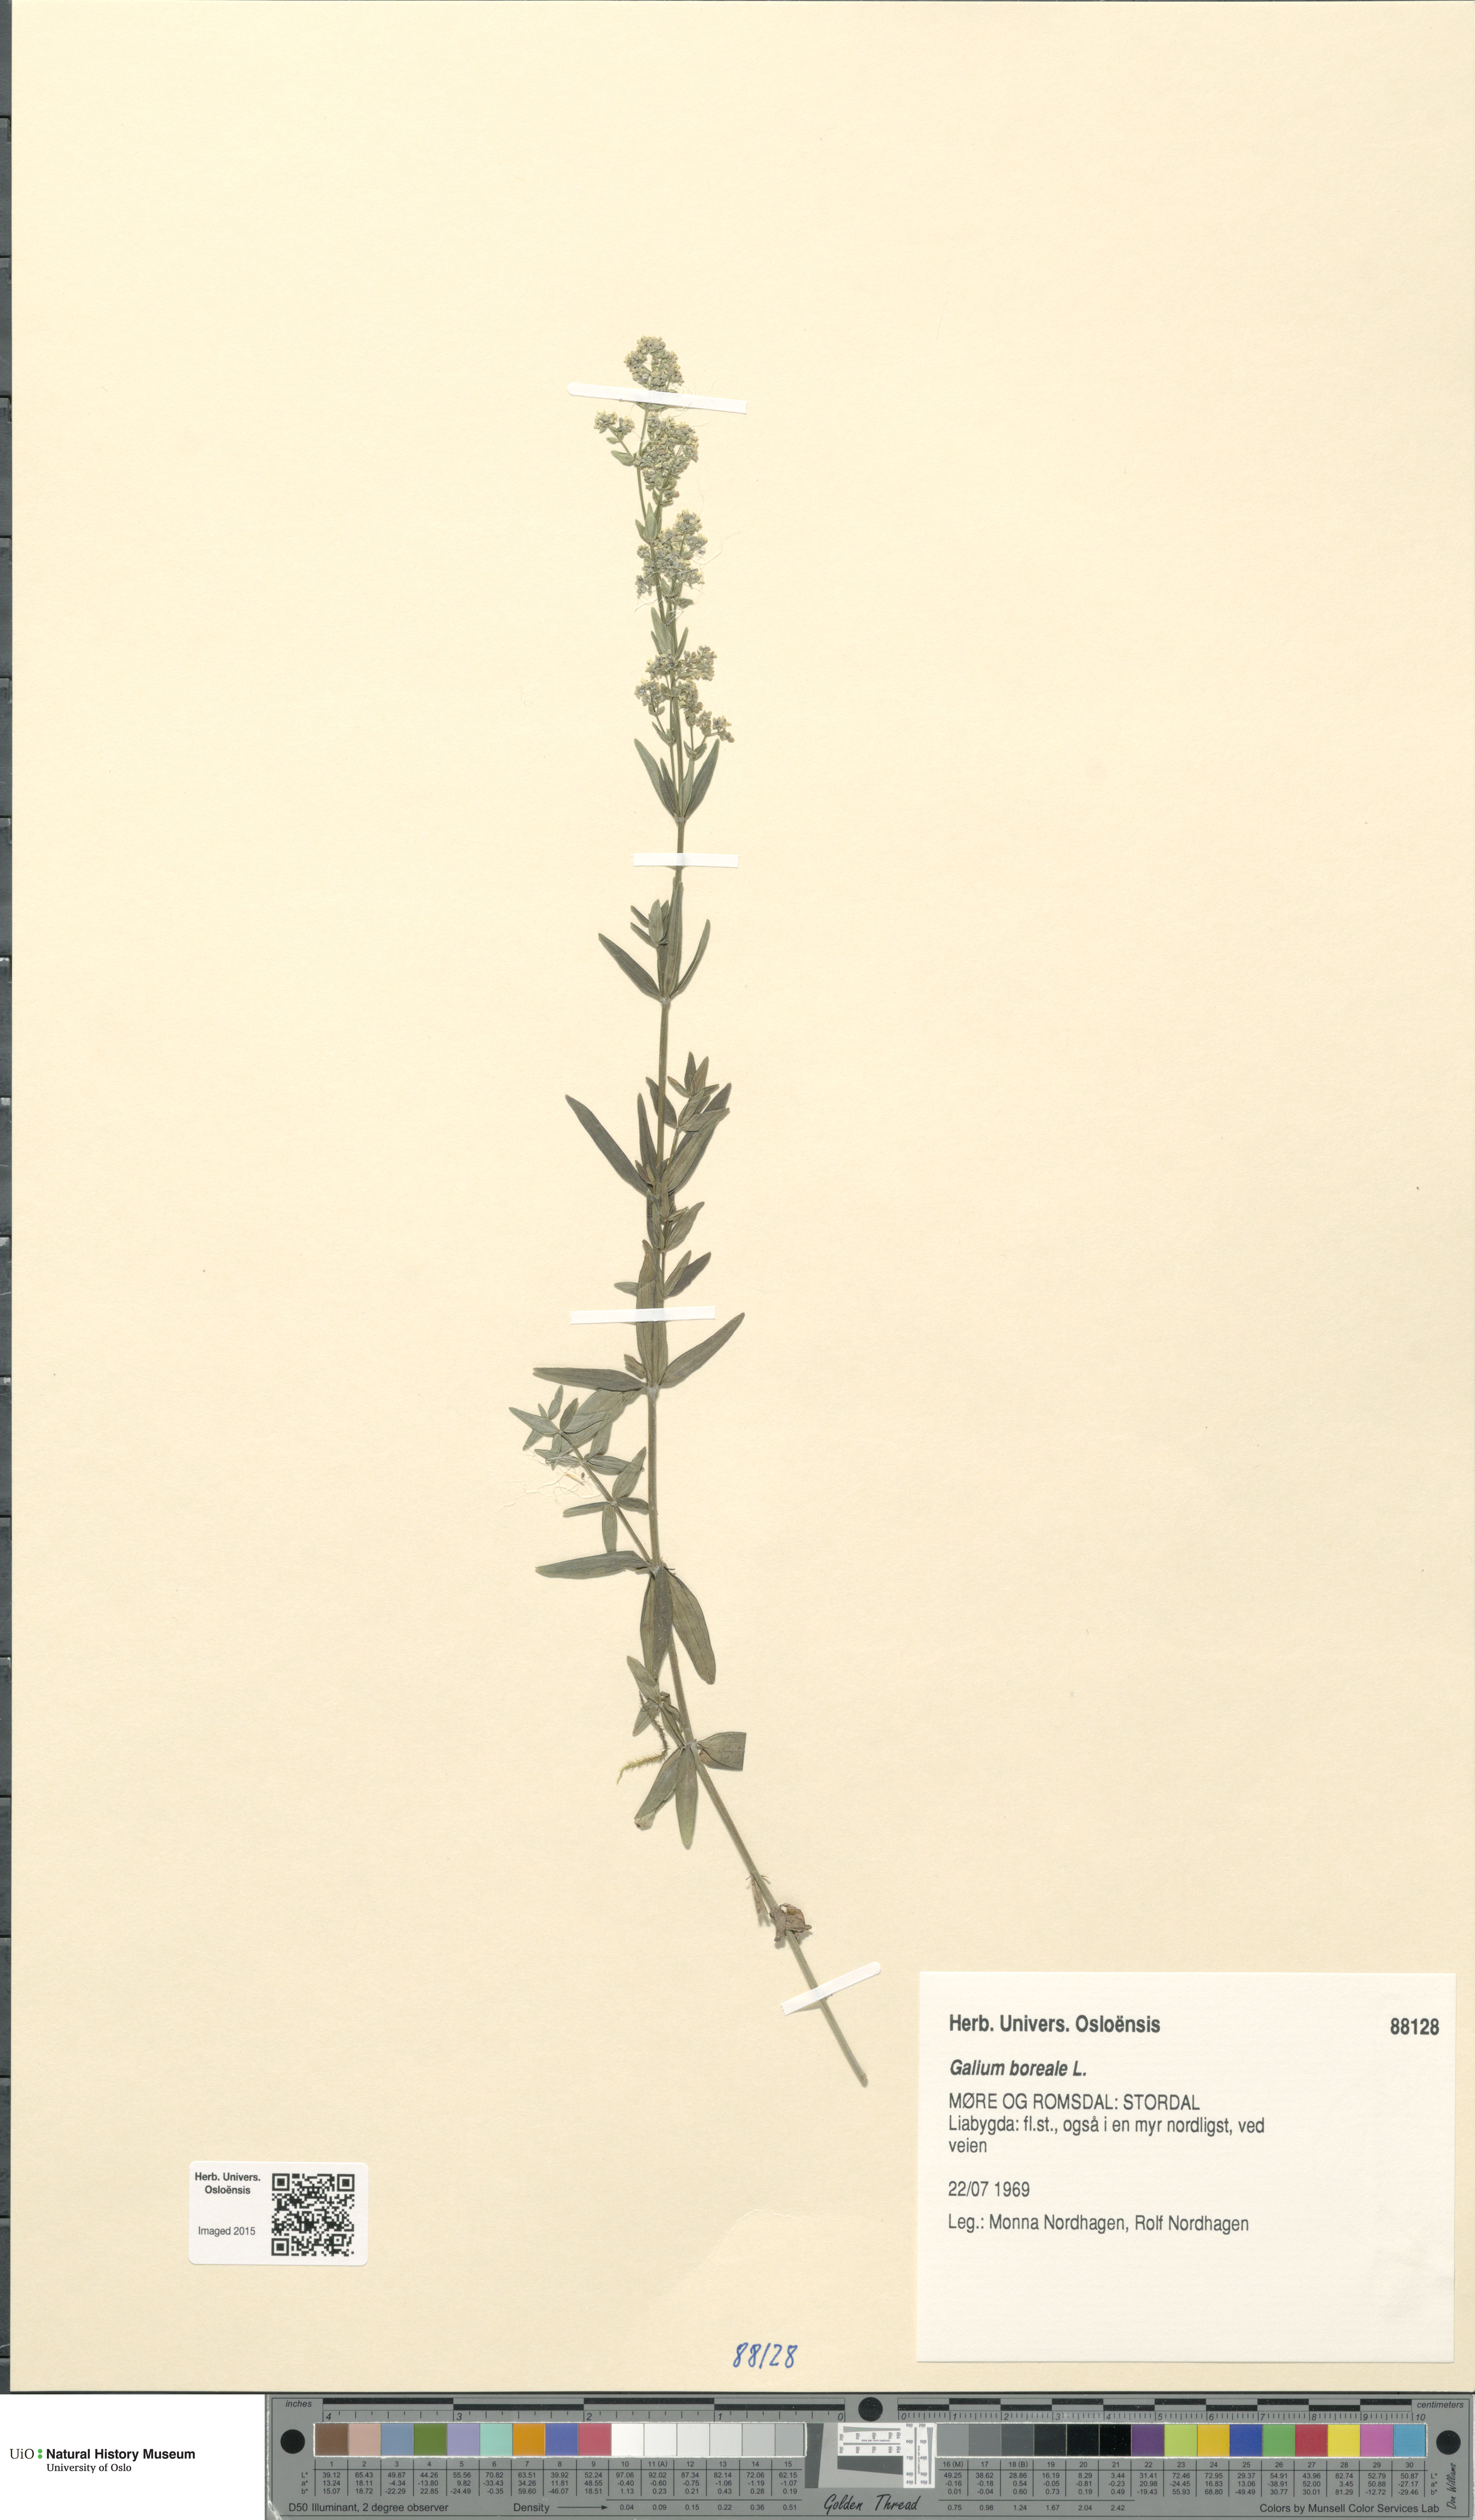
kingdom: Plantae
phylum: Tracheophyta
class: Magnoliopsida
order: Gentianales
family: Rubiaceae
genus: Galium
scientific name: Galium boreale
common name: Northern bedstraw
